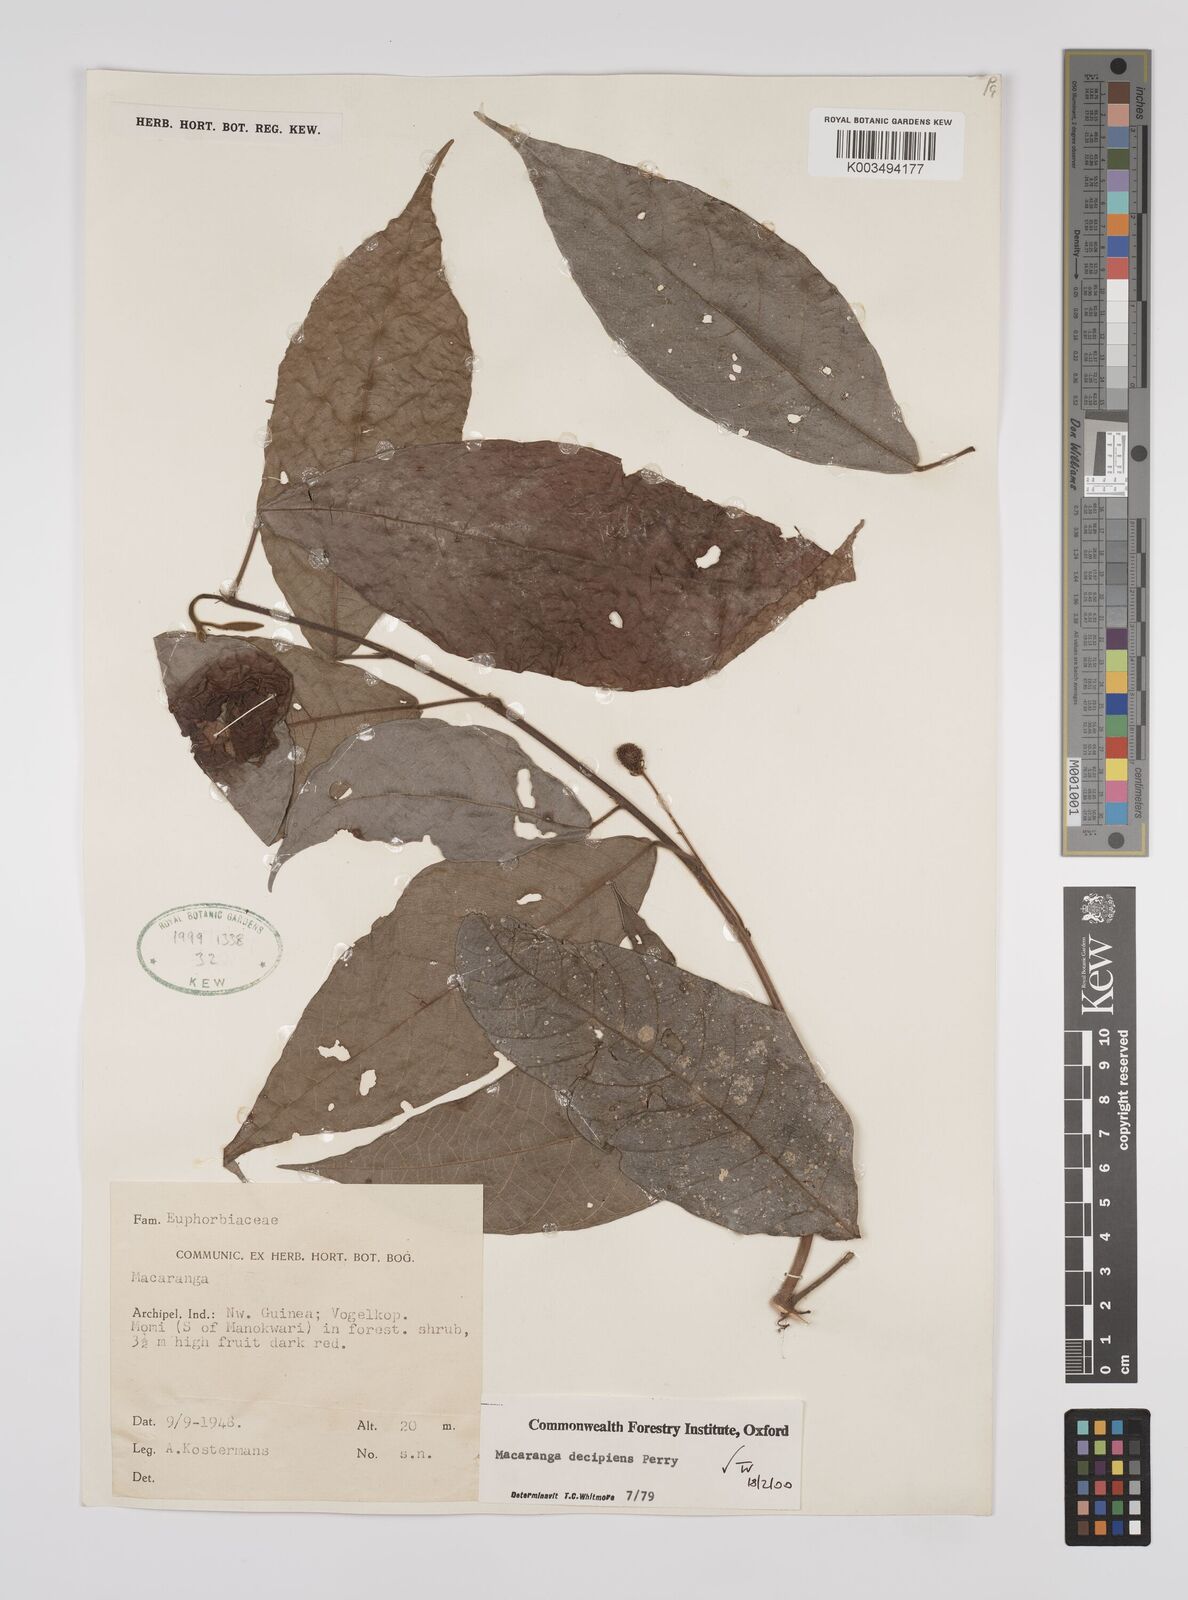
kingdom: Plantae
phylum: Tracheophyta
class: Magnoliopsida
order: Malpighiales
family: Euphorbiaceae
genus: Macaranga
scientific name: Macaranga decipiens
